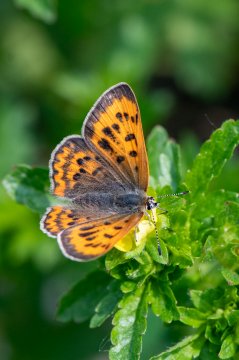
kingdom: Animalia
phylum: Arthropoda
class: Insecta
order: Lepidoptera
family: Sesiidae
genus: Sesia
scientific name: Sesia Lycaena helloides
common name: Purplish Copper
